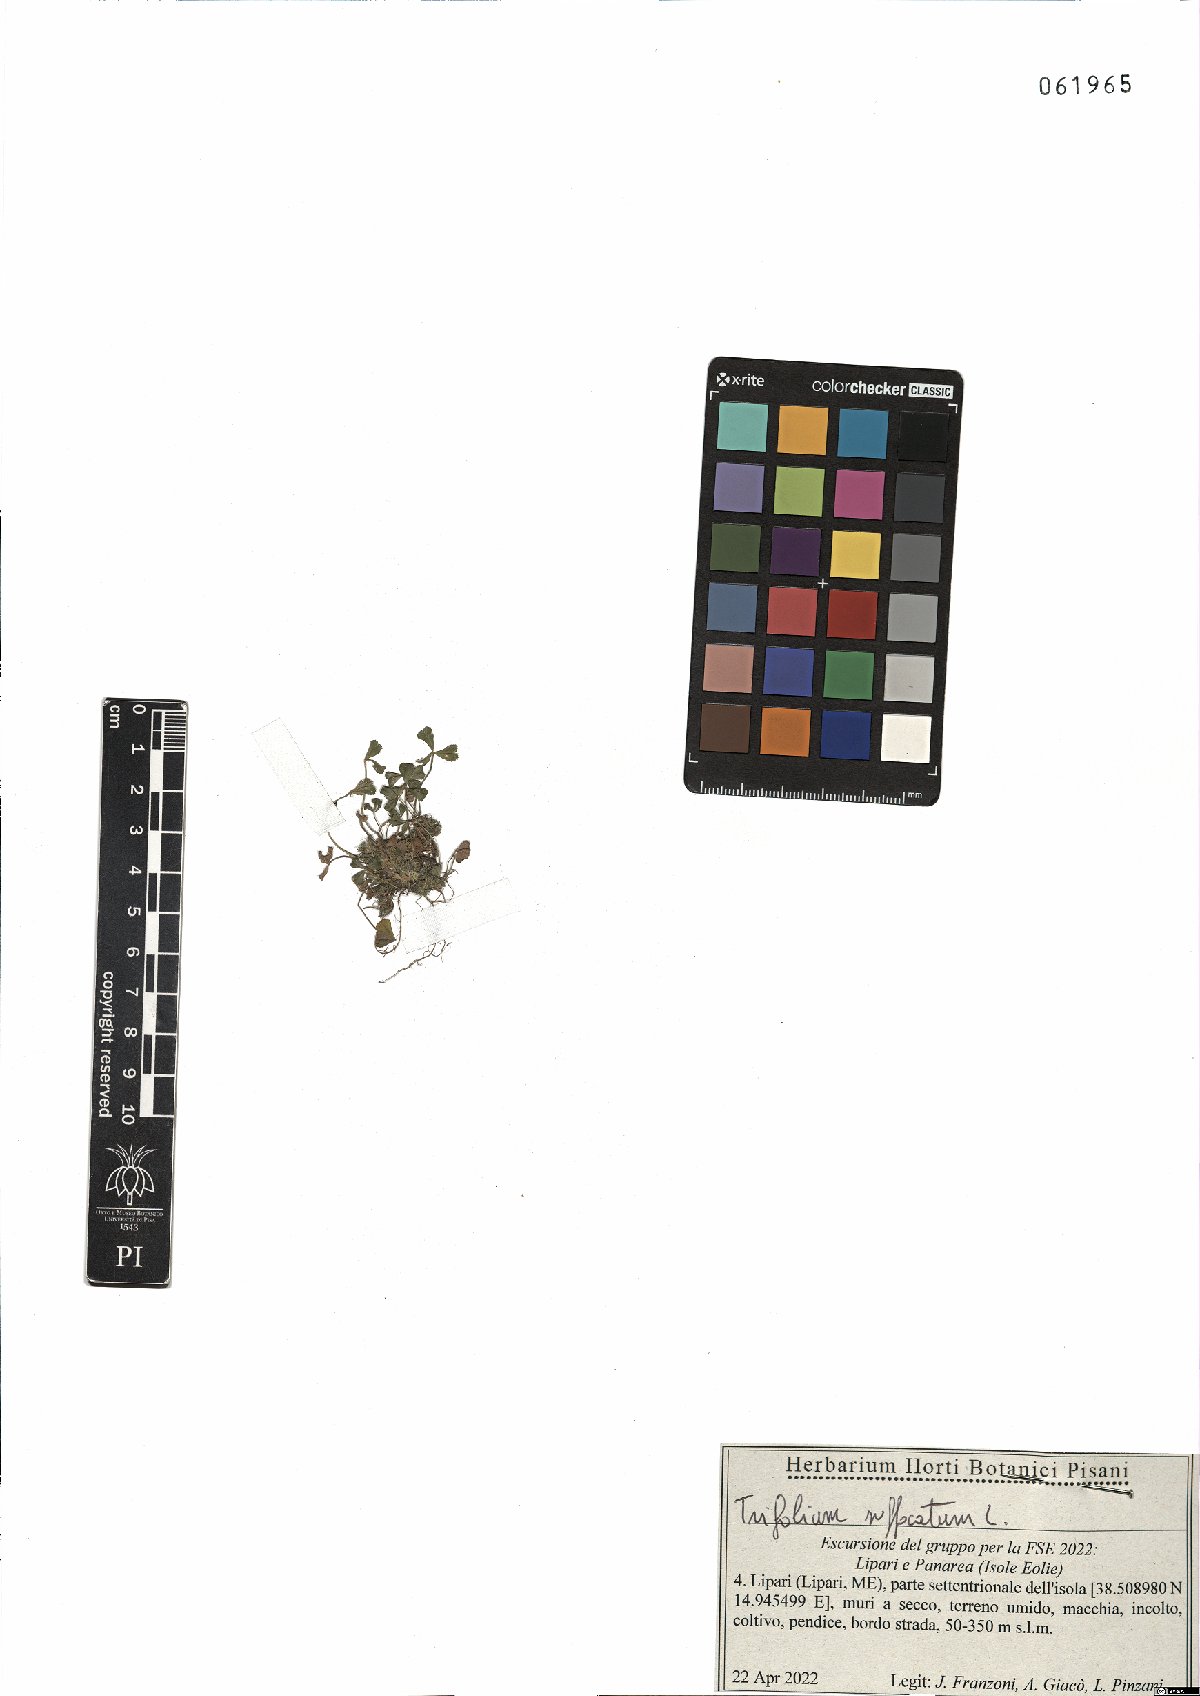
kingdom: Plantae
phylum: Tracheophyta
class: Magnoliopsida
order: Fabales
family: Fabaceae
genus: Trifolium
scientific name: Trifolium suffocatum
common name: Suffocated clover
